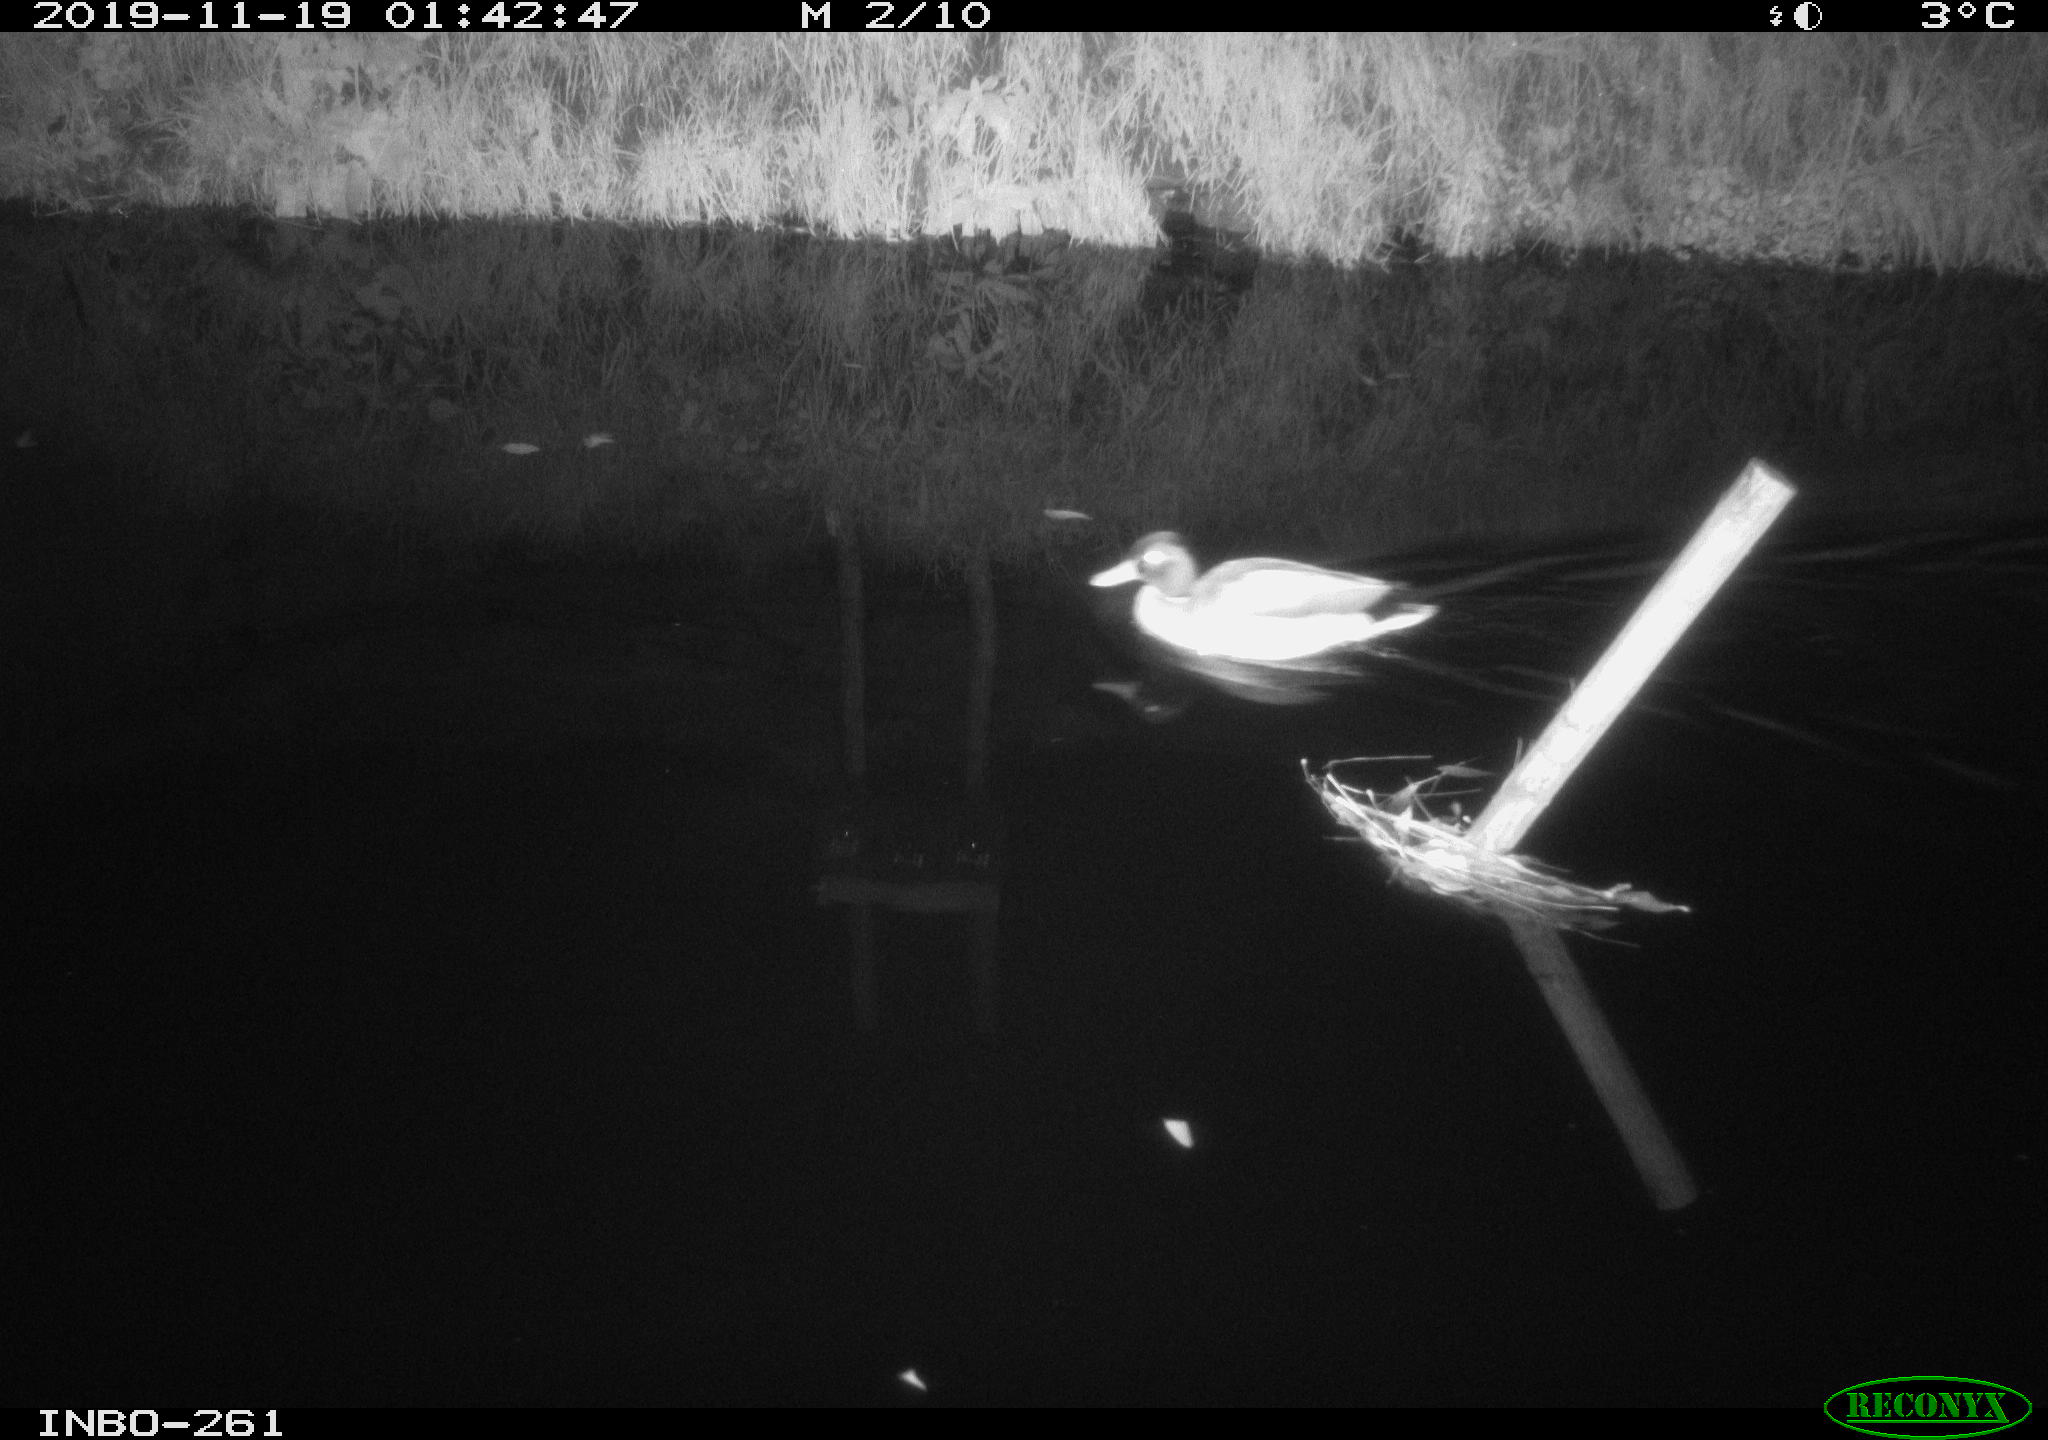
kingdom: Animalia
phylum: Chordata
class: Aves
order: Anseriformes
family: Anatidae
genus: Anas
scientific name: Anas platyrhynchos
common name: Mallard
